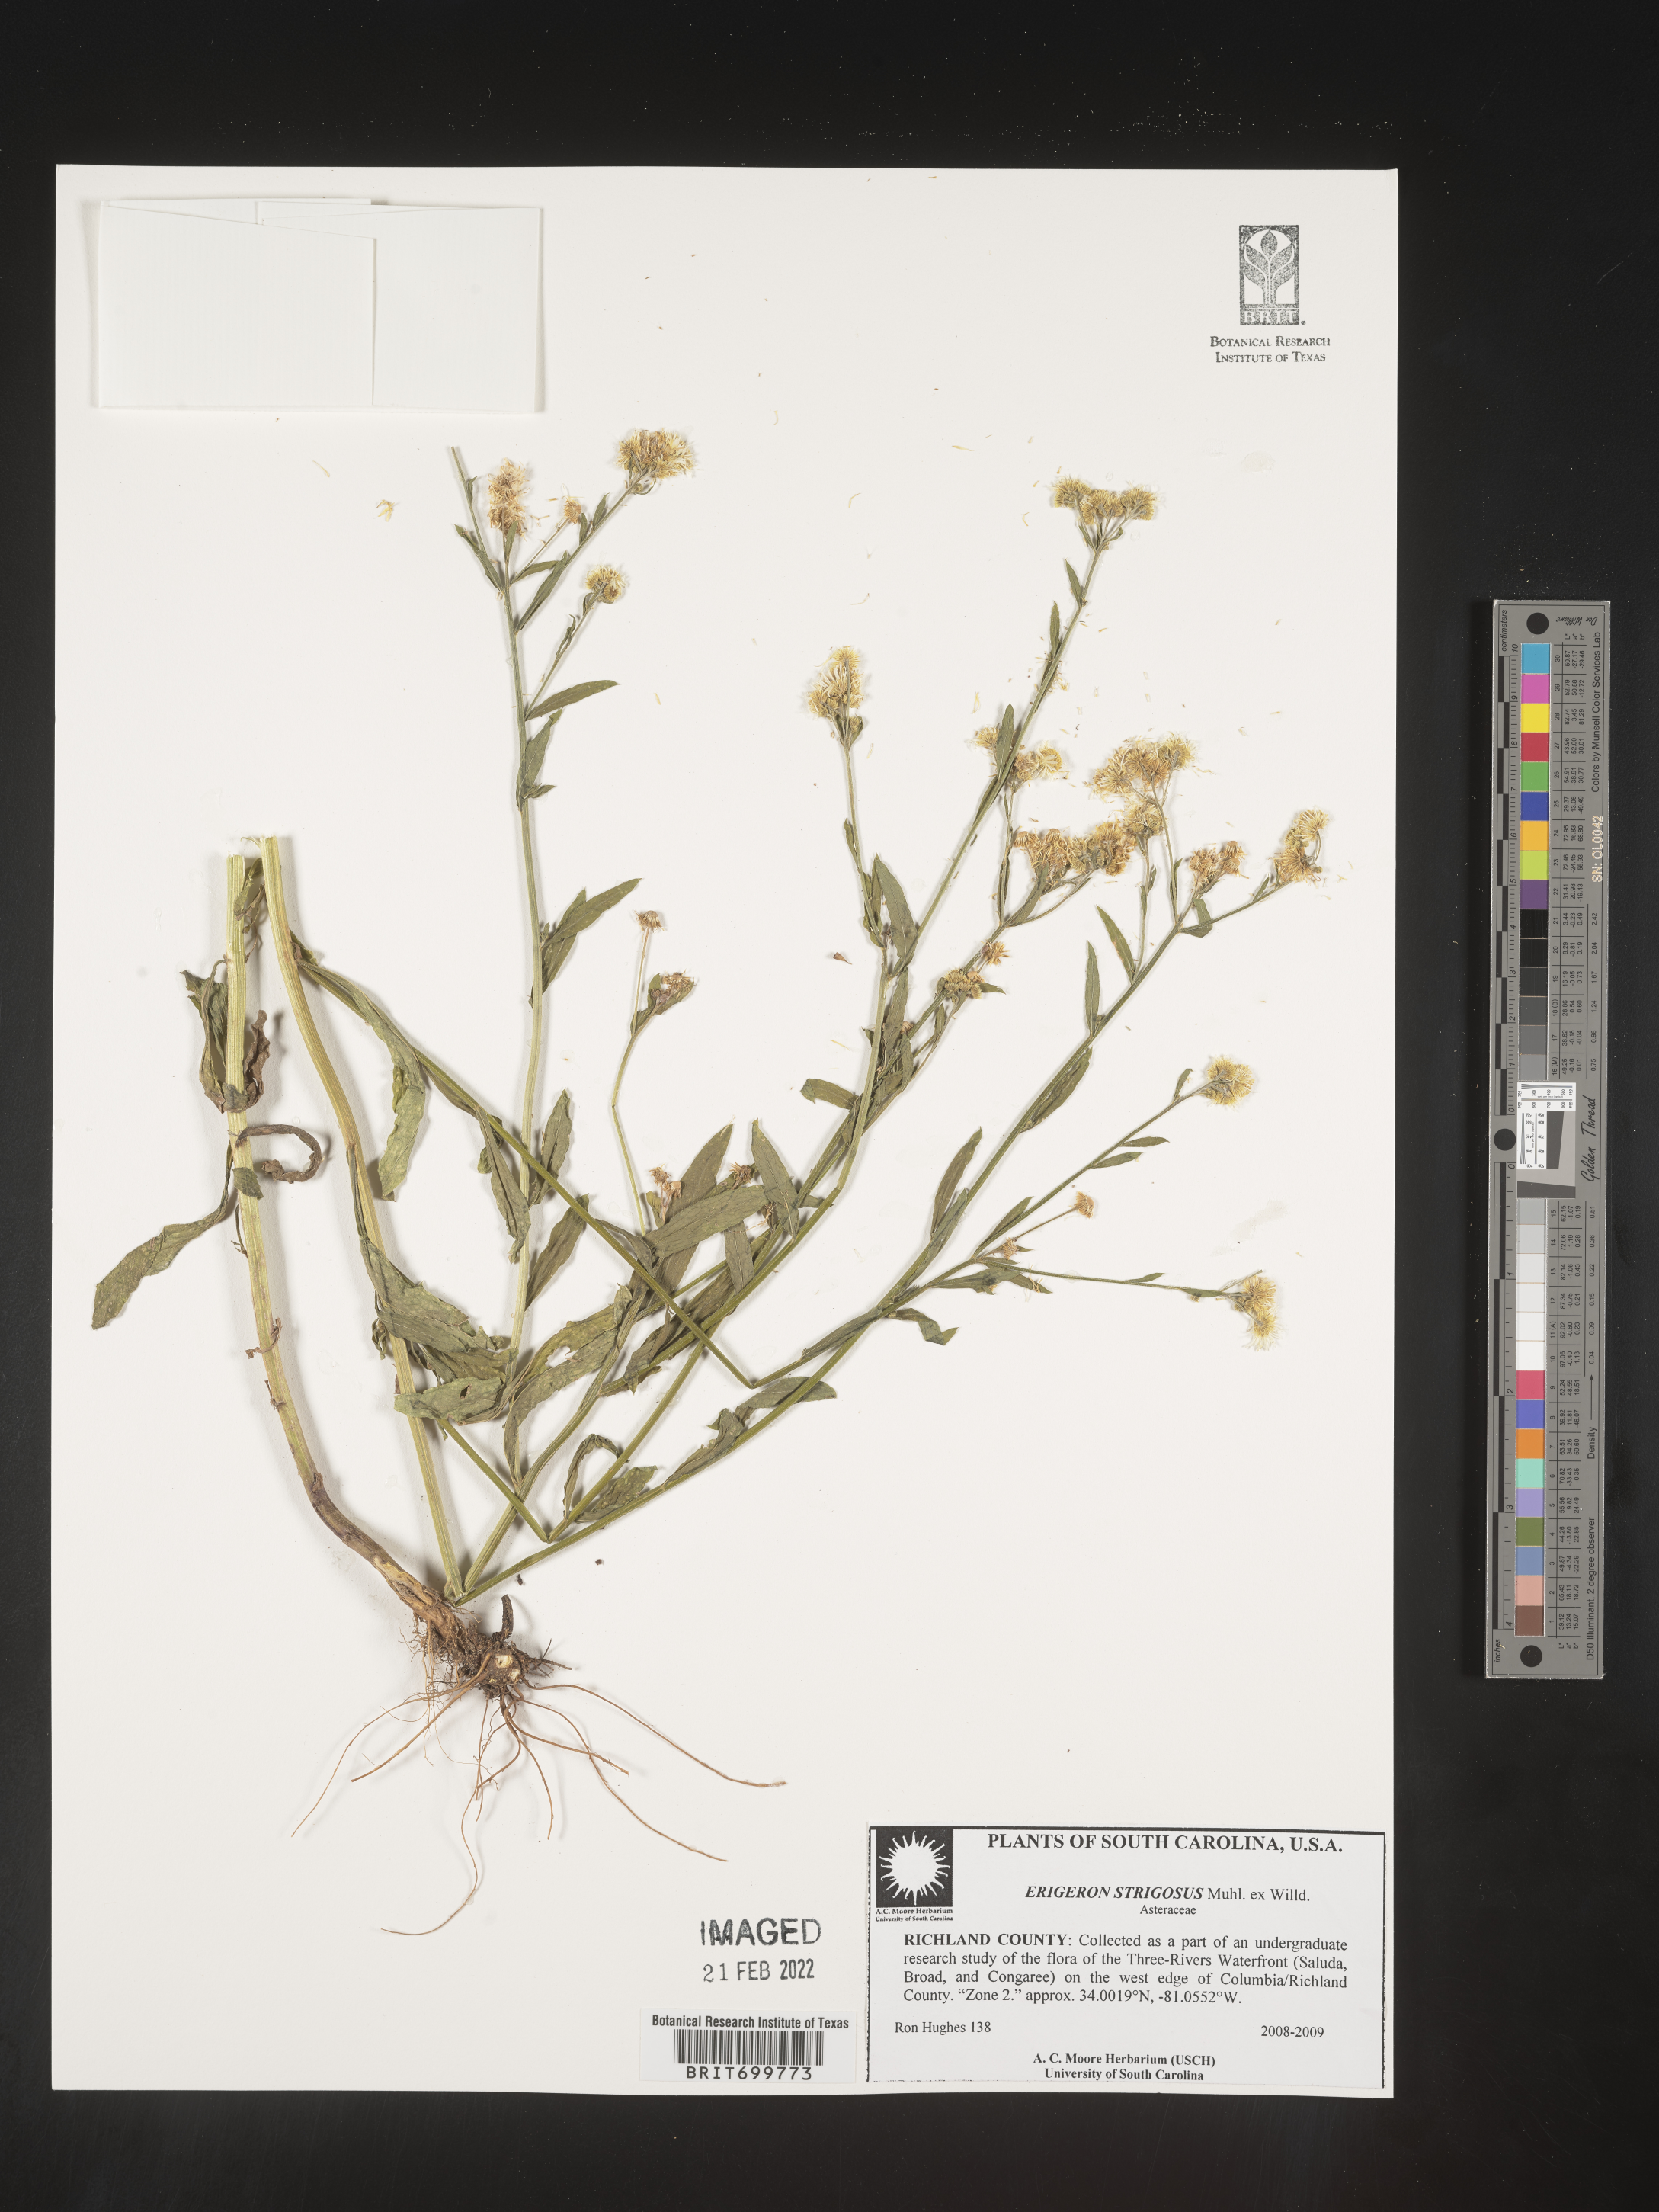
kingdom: Plantae
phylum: Tracheophyta
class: Magnoliopsida
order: Asterales
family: Asteraceae
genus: Erigeron
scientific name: Erigeron strigosus
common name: Common eastern fleabane
